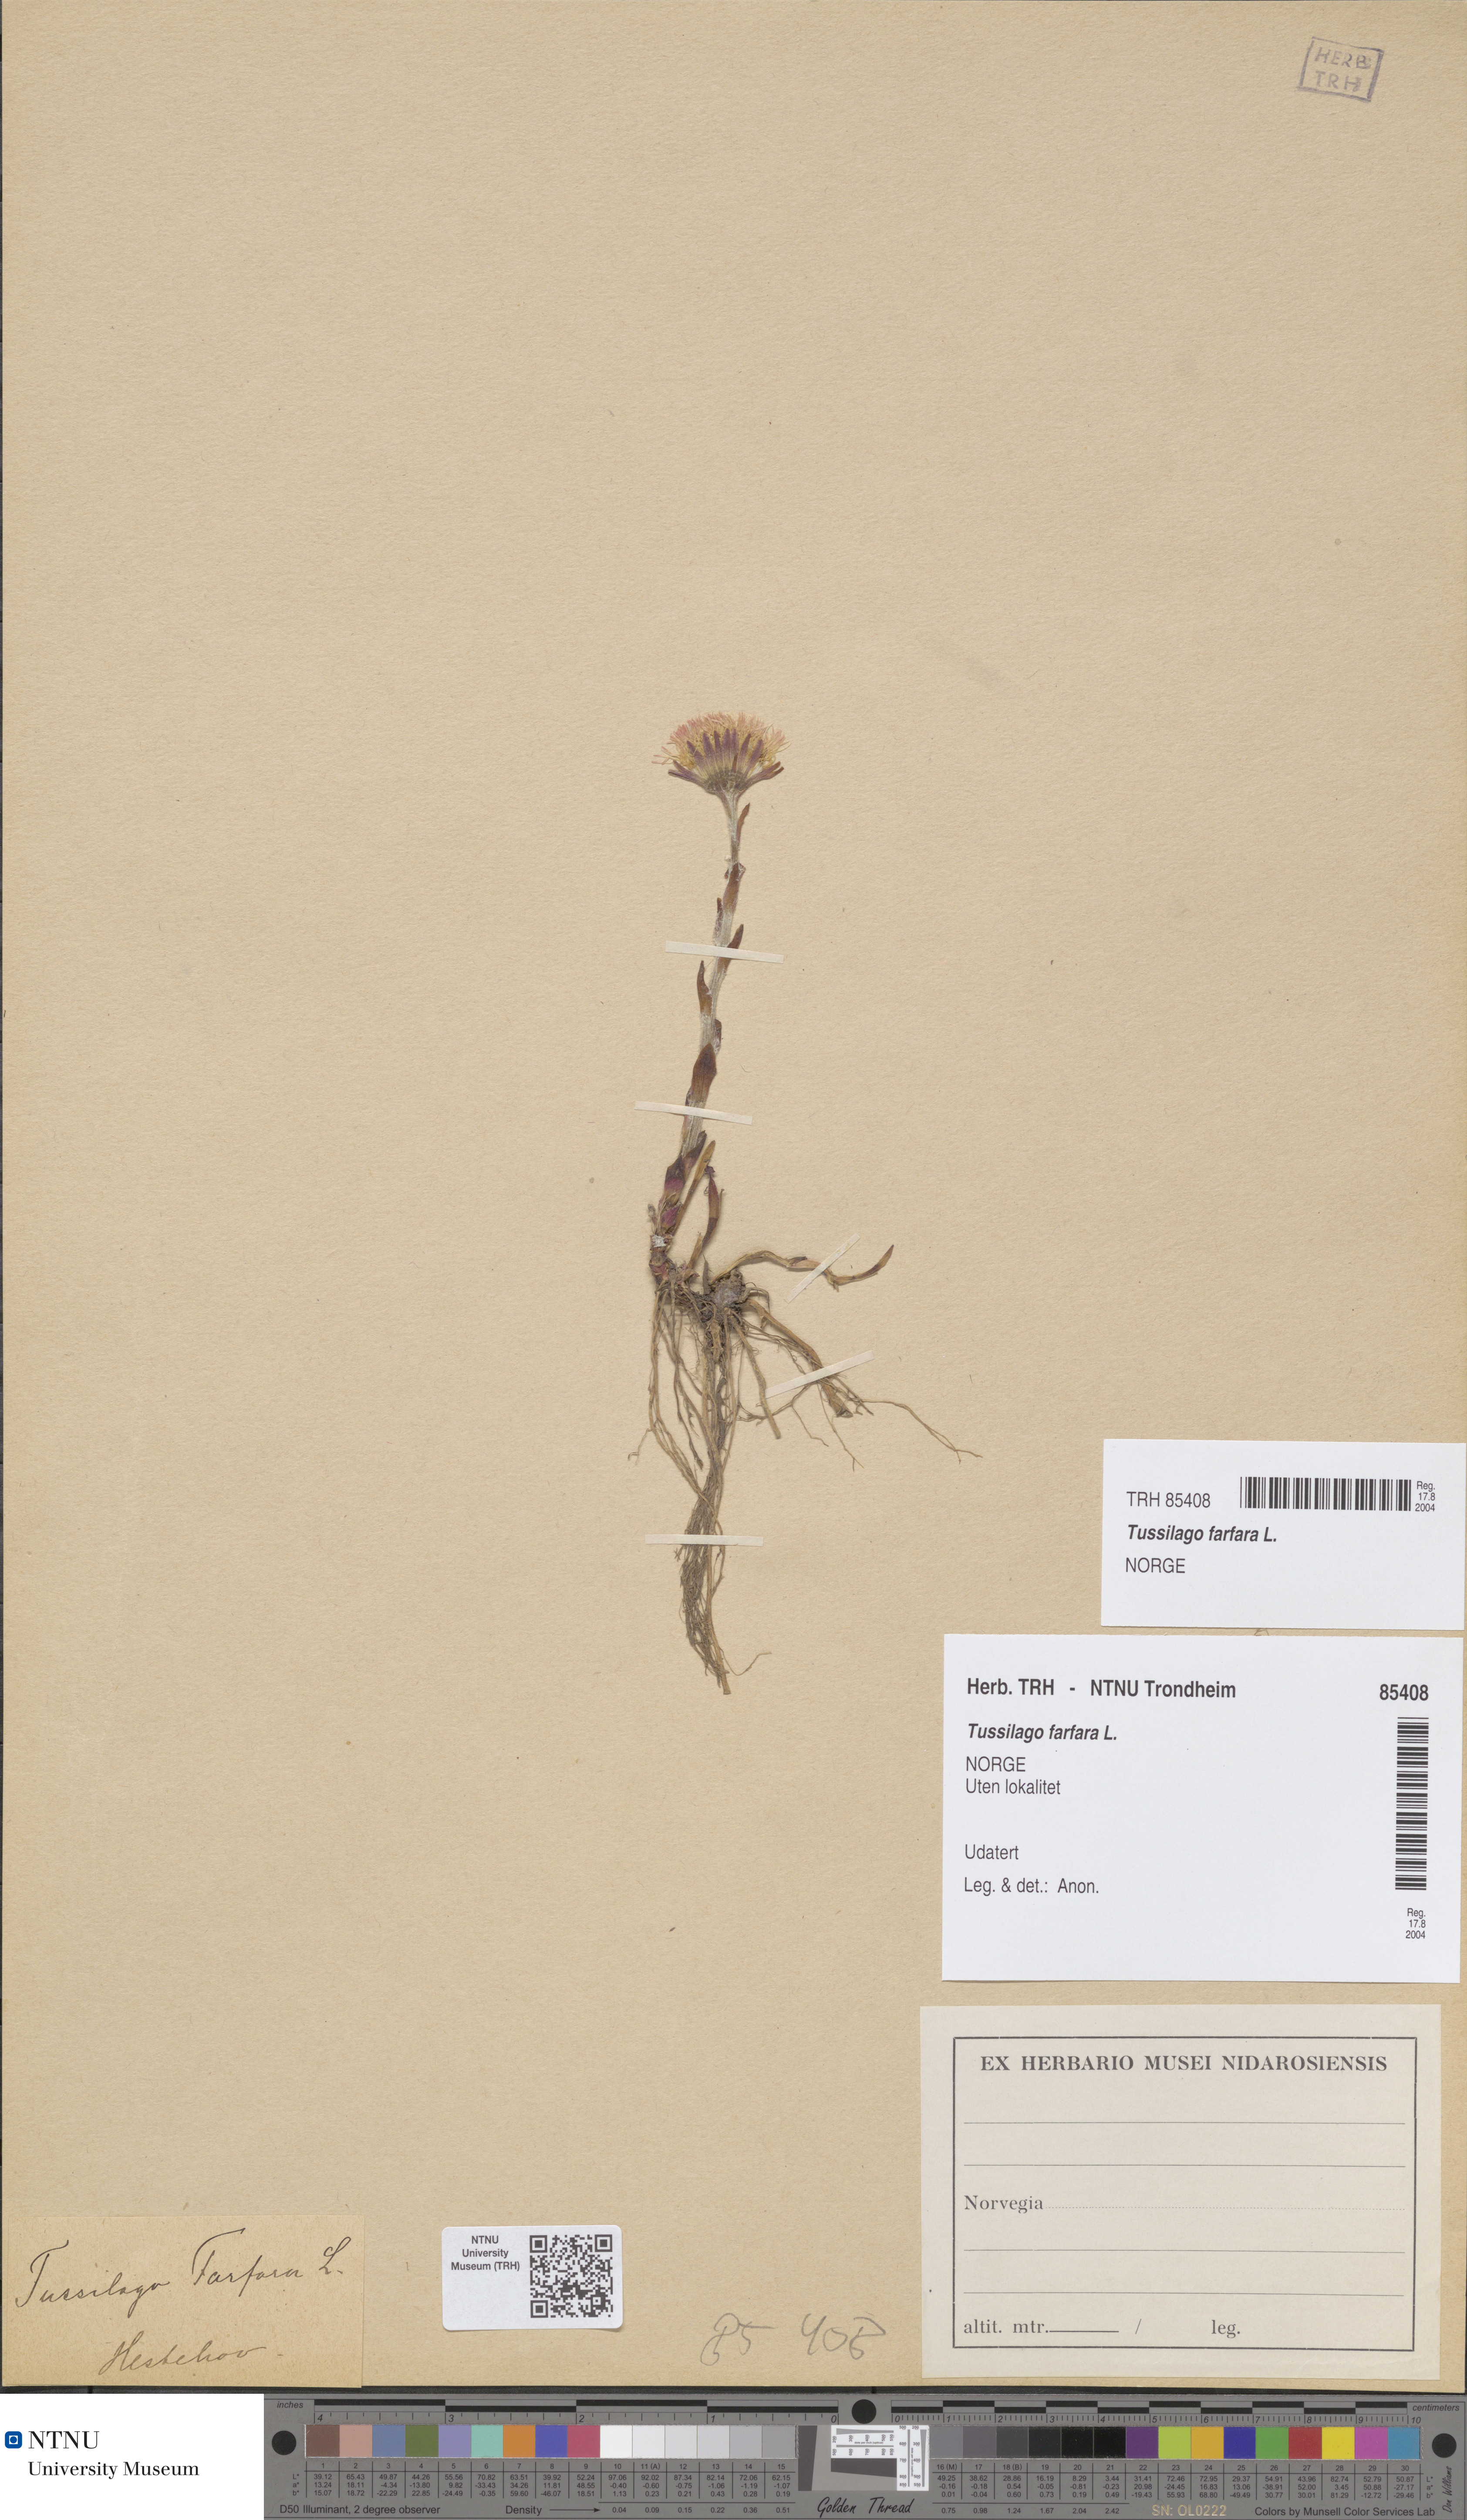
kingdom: Plantae
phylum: Tracheophyta
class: Magnoliopsida
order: Asterales
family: Asteraceae
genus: Tussilago
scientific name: Tussilago farfara
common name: Coltsfoot
